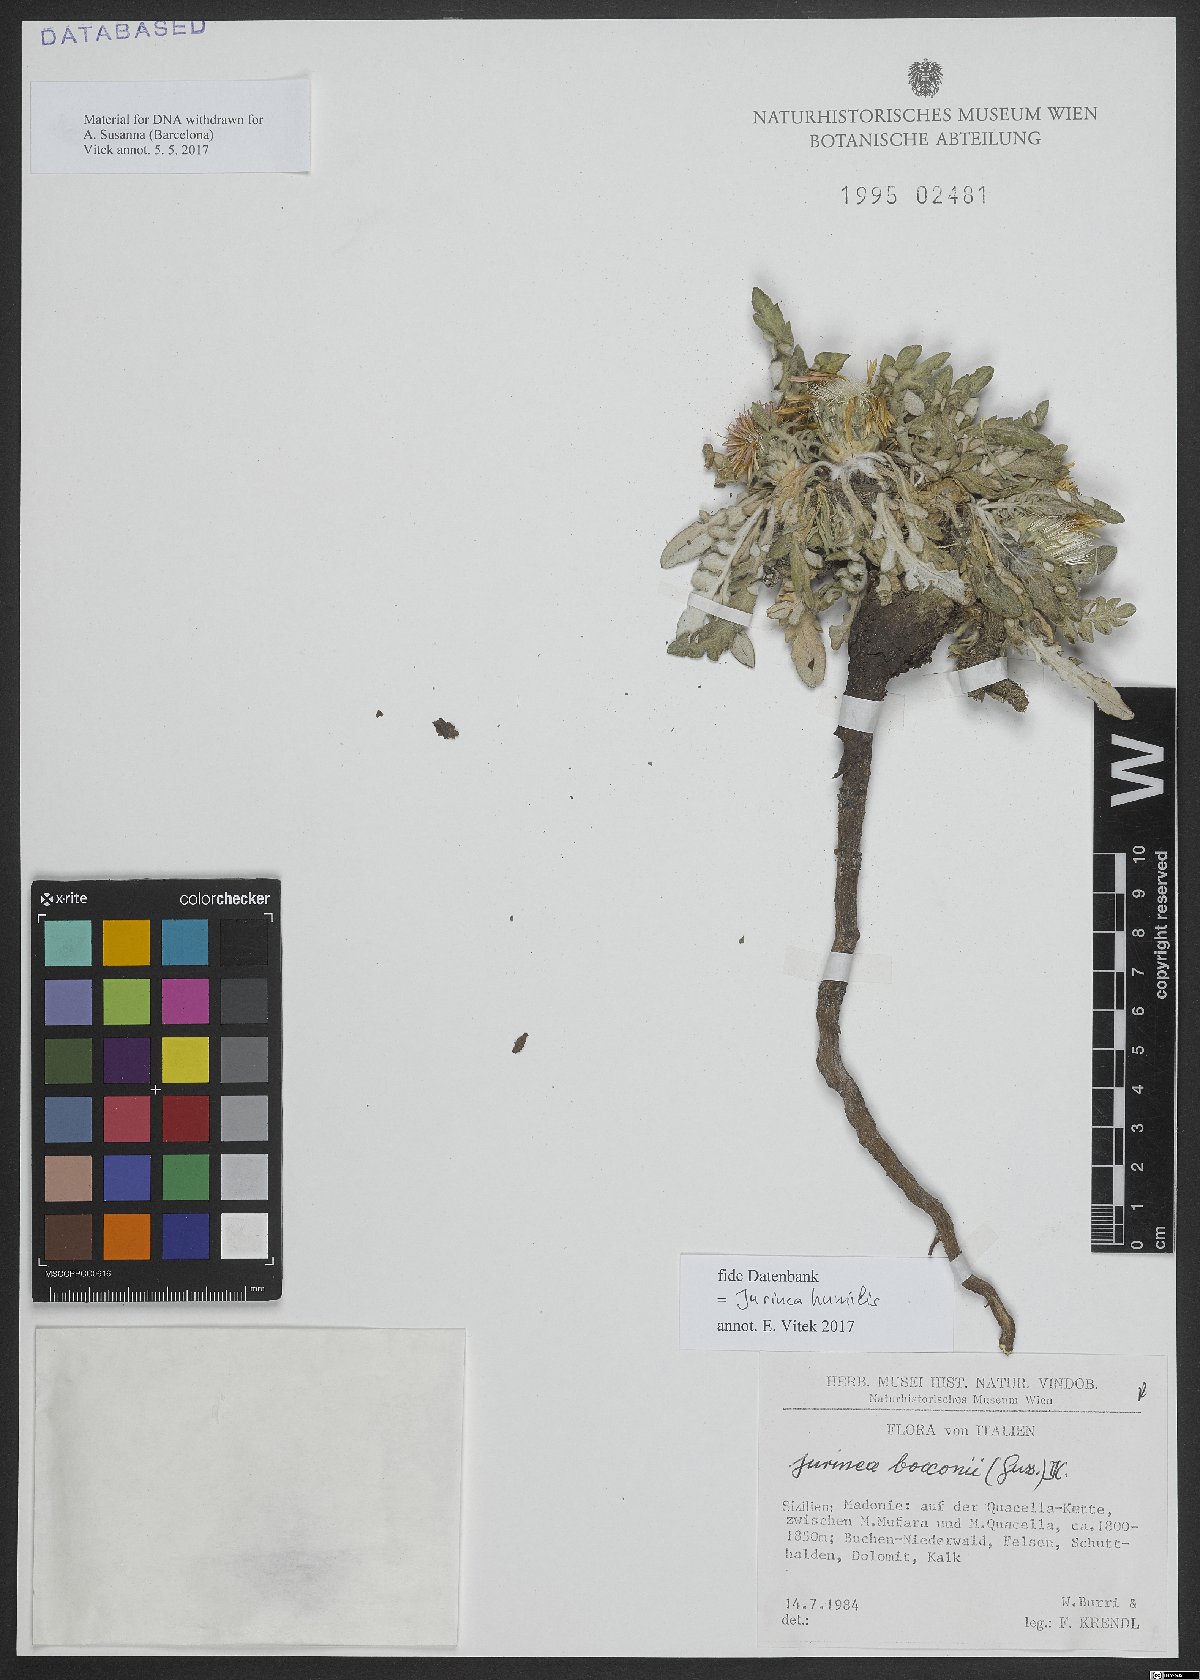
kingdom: Plantae
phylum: Tracheophyta
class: Magnoliopsida
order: Asterales
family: Asteraceae
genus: Jurinea
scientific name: Jurinea humilis
